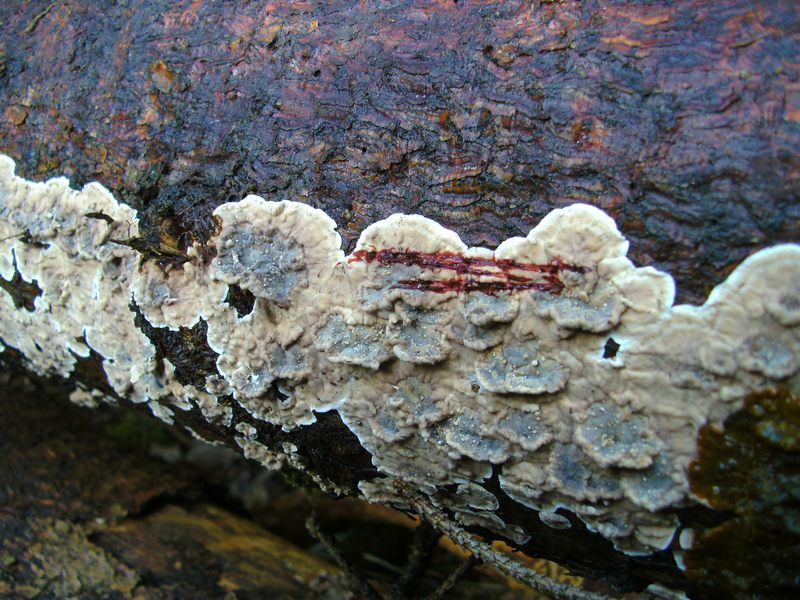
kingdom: Fungi
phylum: Basidiomycota
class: Agaricomycetes
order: Russulales
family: Stereaceae
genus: Stereum
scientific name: Stereum sanguinolentum
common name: blødende lædersvamp
